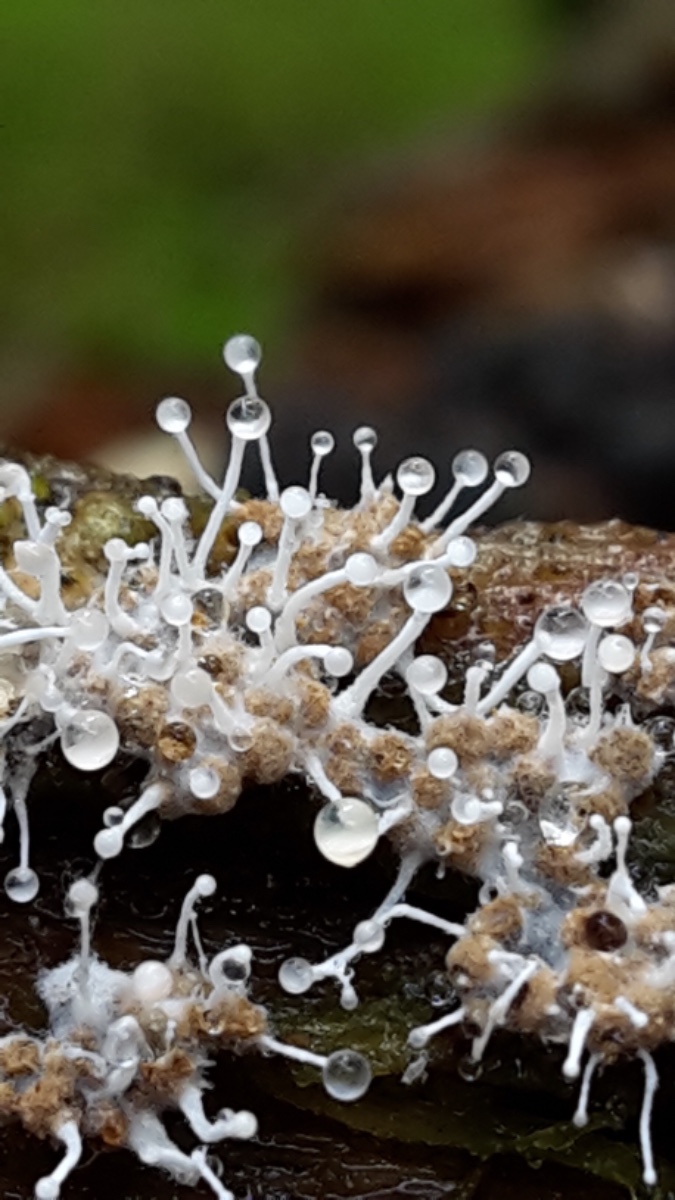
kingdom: Fungi
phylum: Ascomycota
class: Sordariomycetes
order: Hypocreales
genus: Stilbella
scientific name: Stilbella byssiseda
